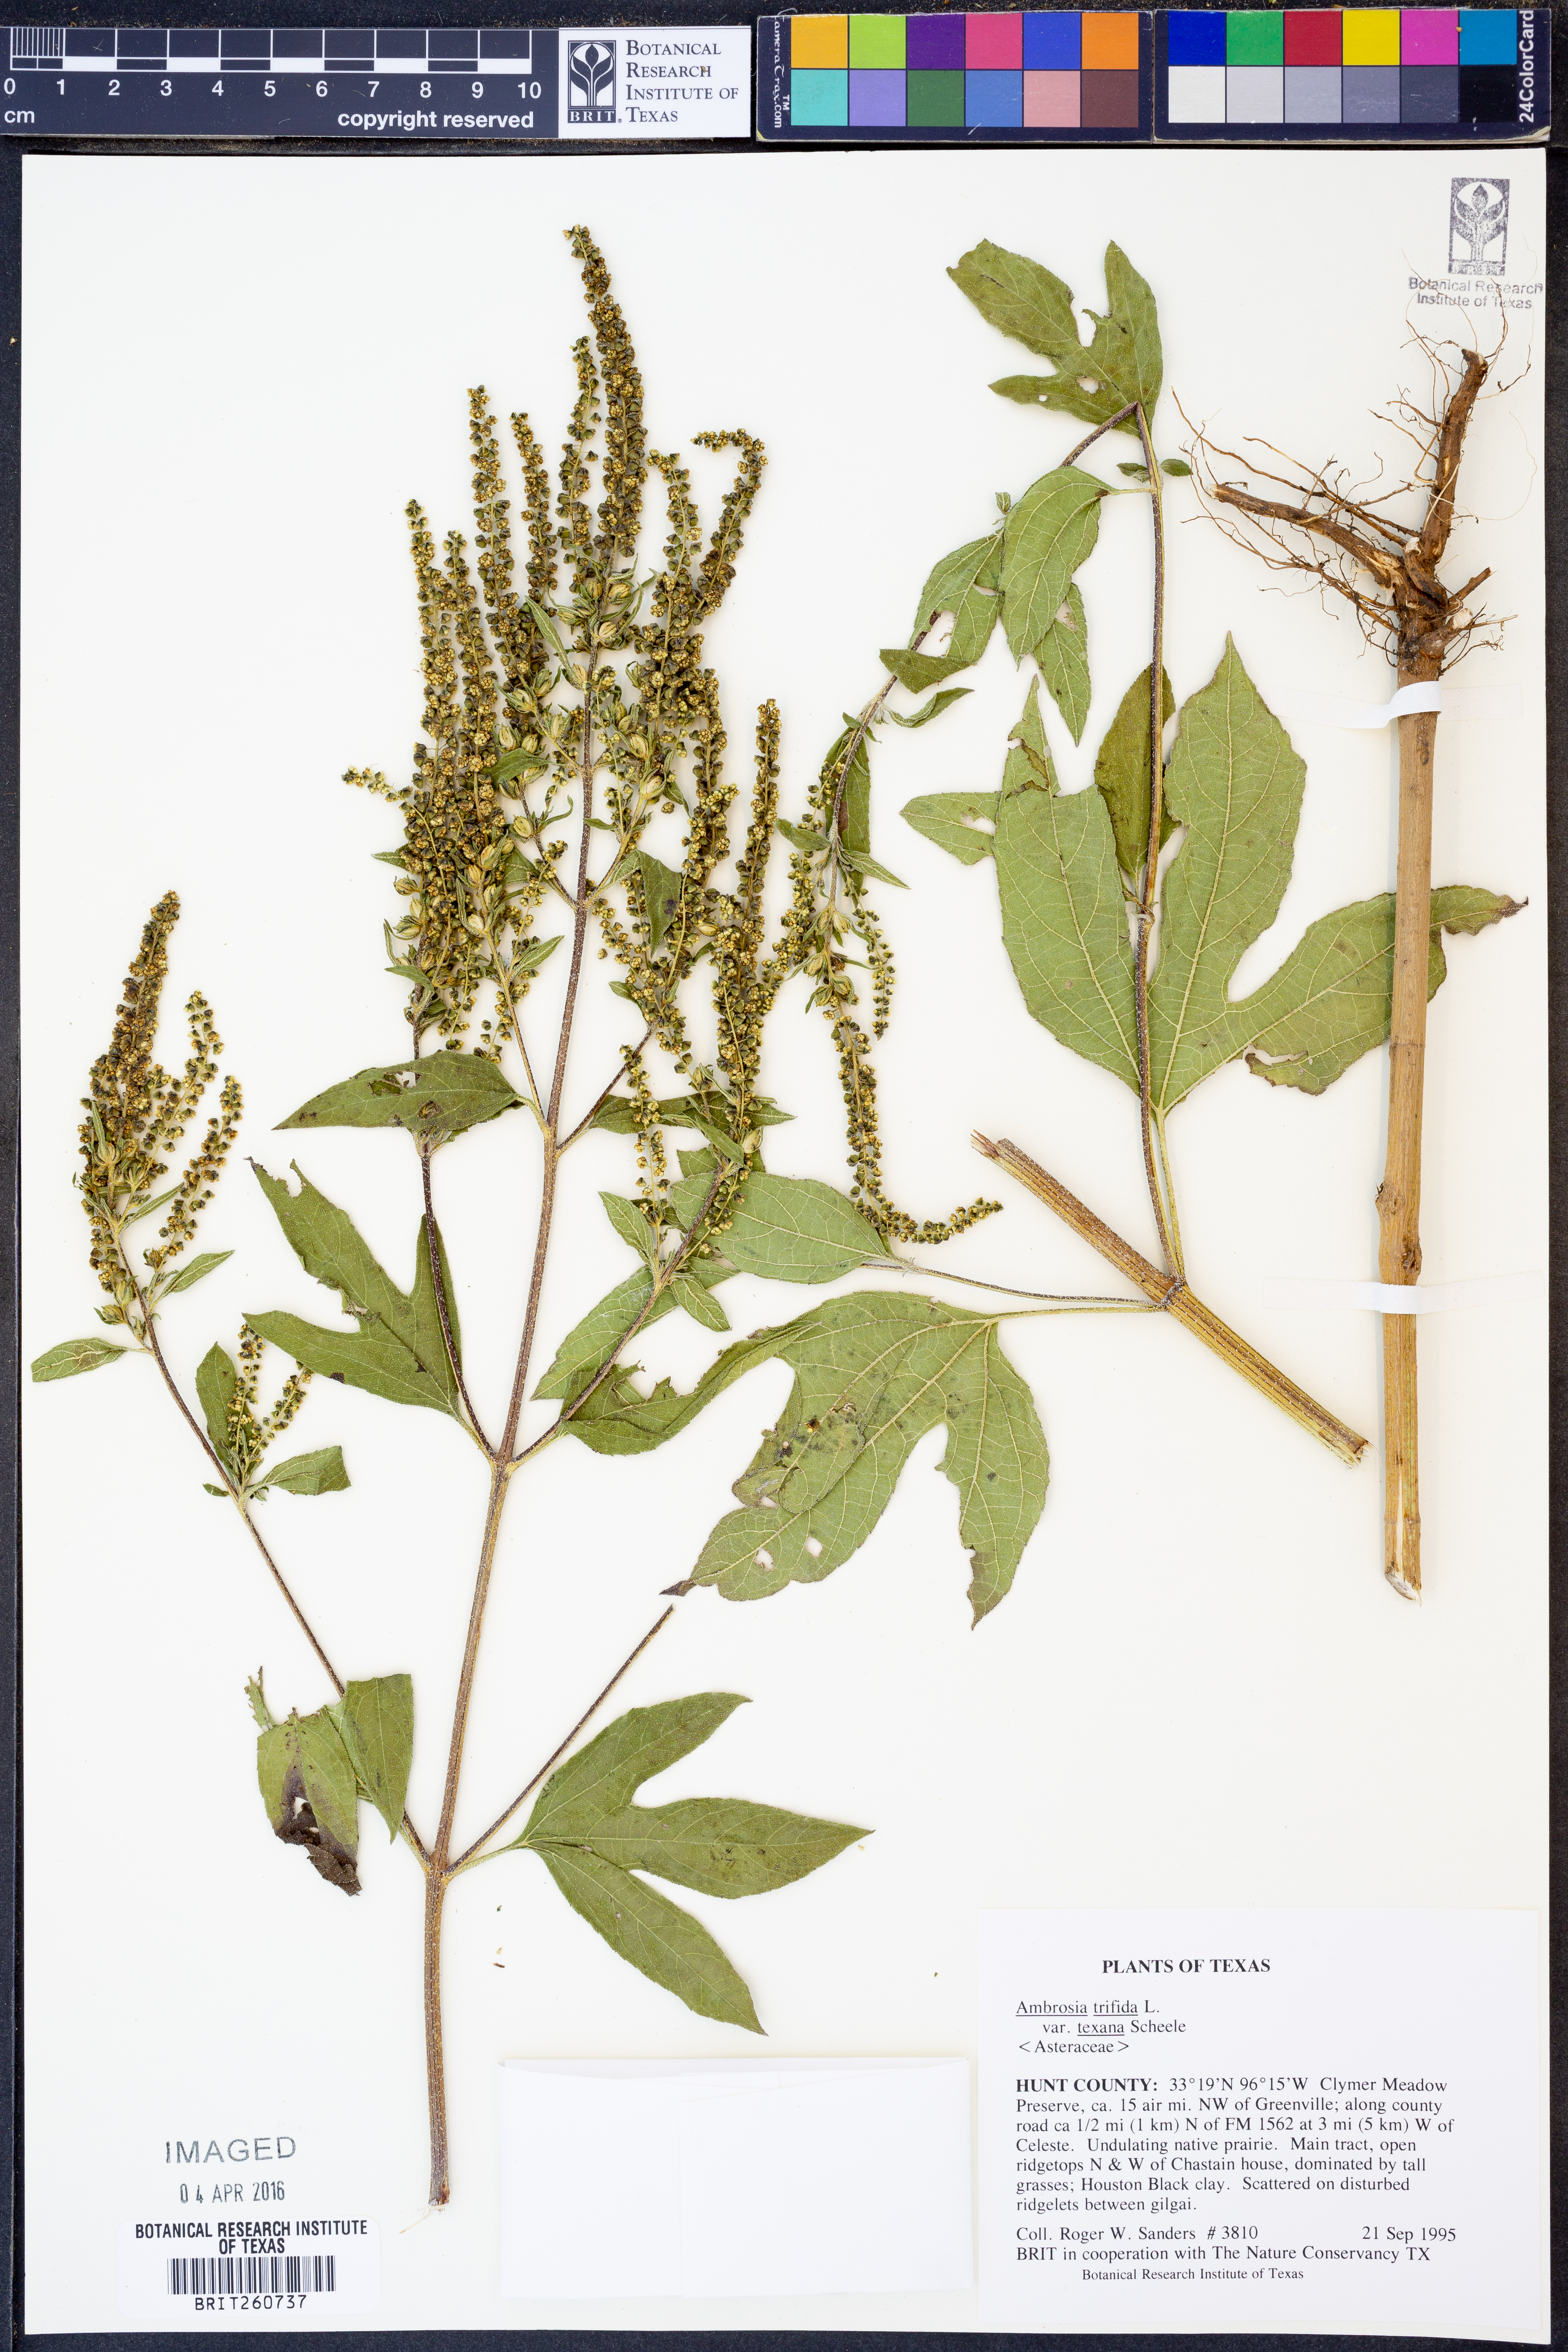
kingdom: Plantae
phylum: Tracheophyta
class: Magnoliopsida
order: Asterales
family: Asteraceae
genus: Ambrosia
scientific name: Ambrosia trifida
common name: Giant ragweed
